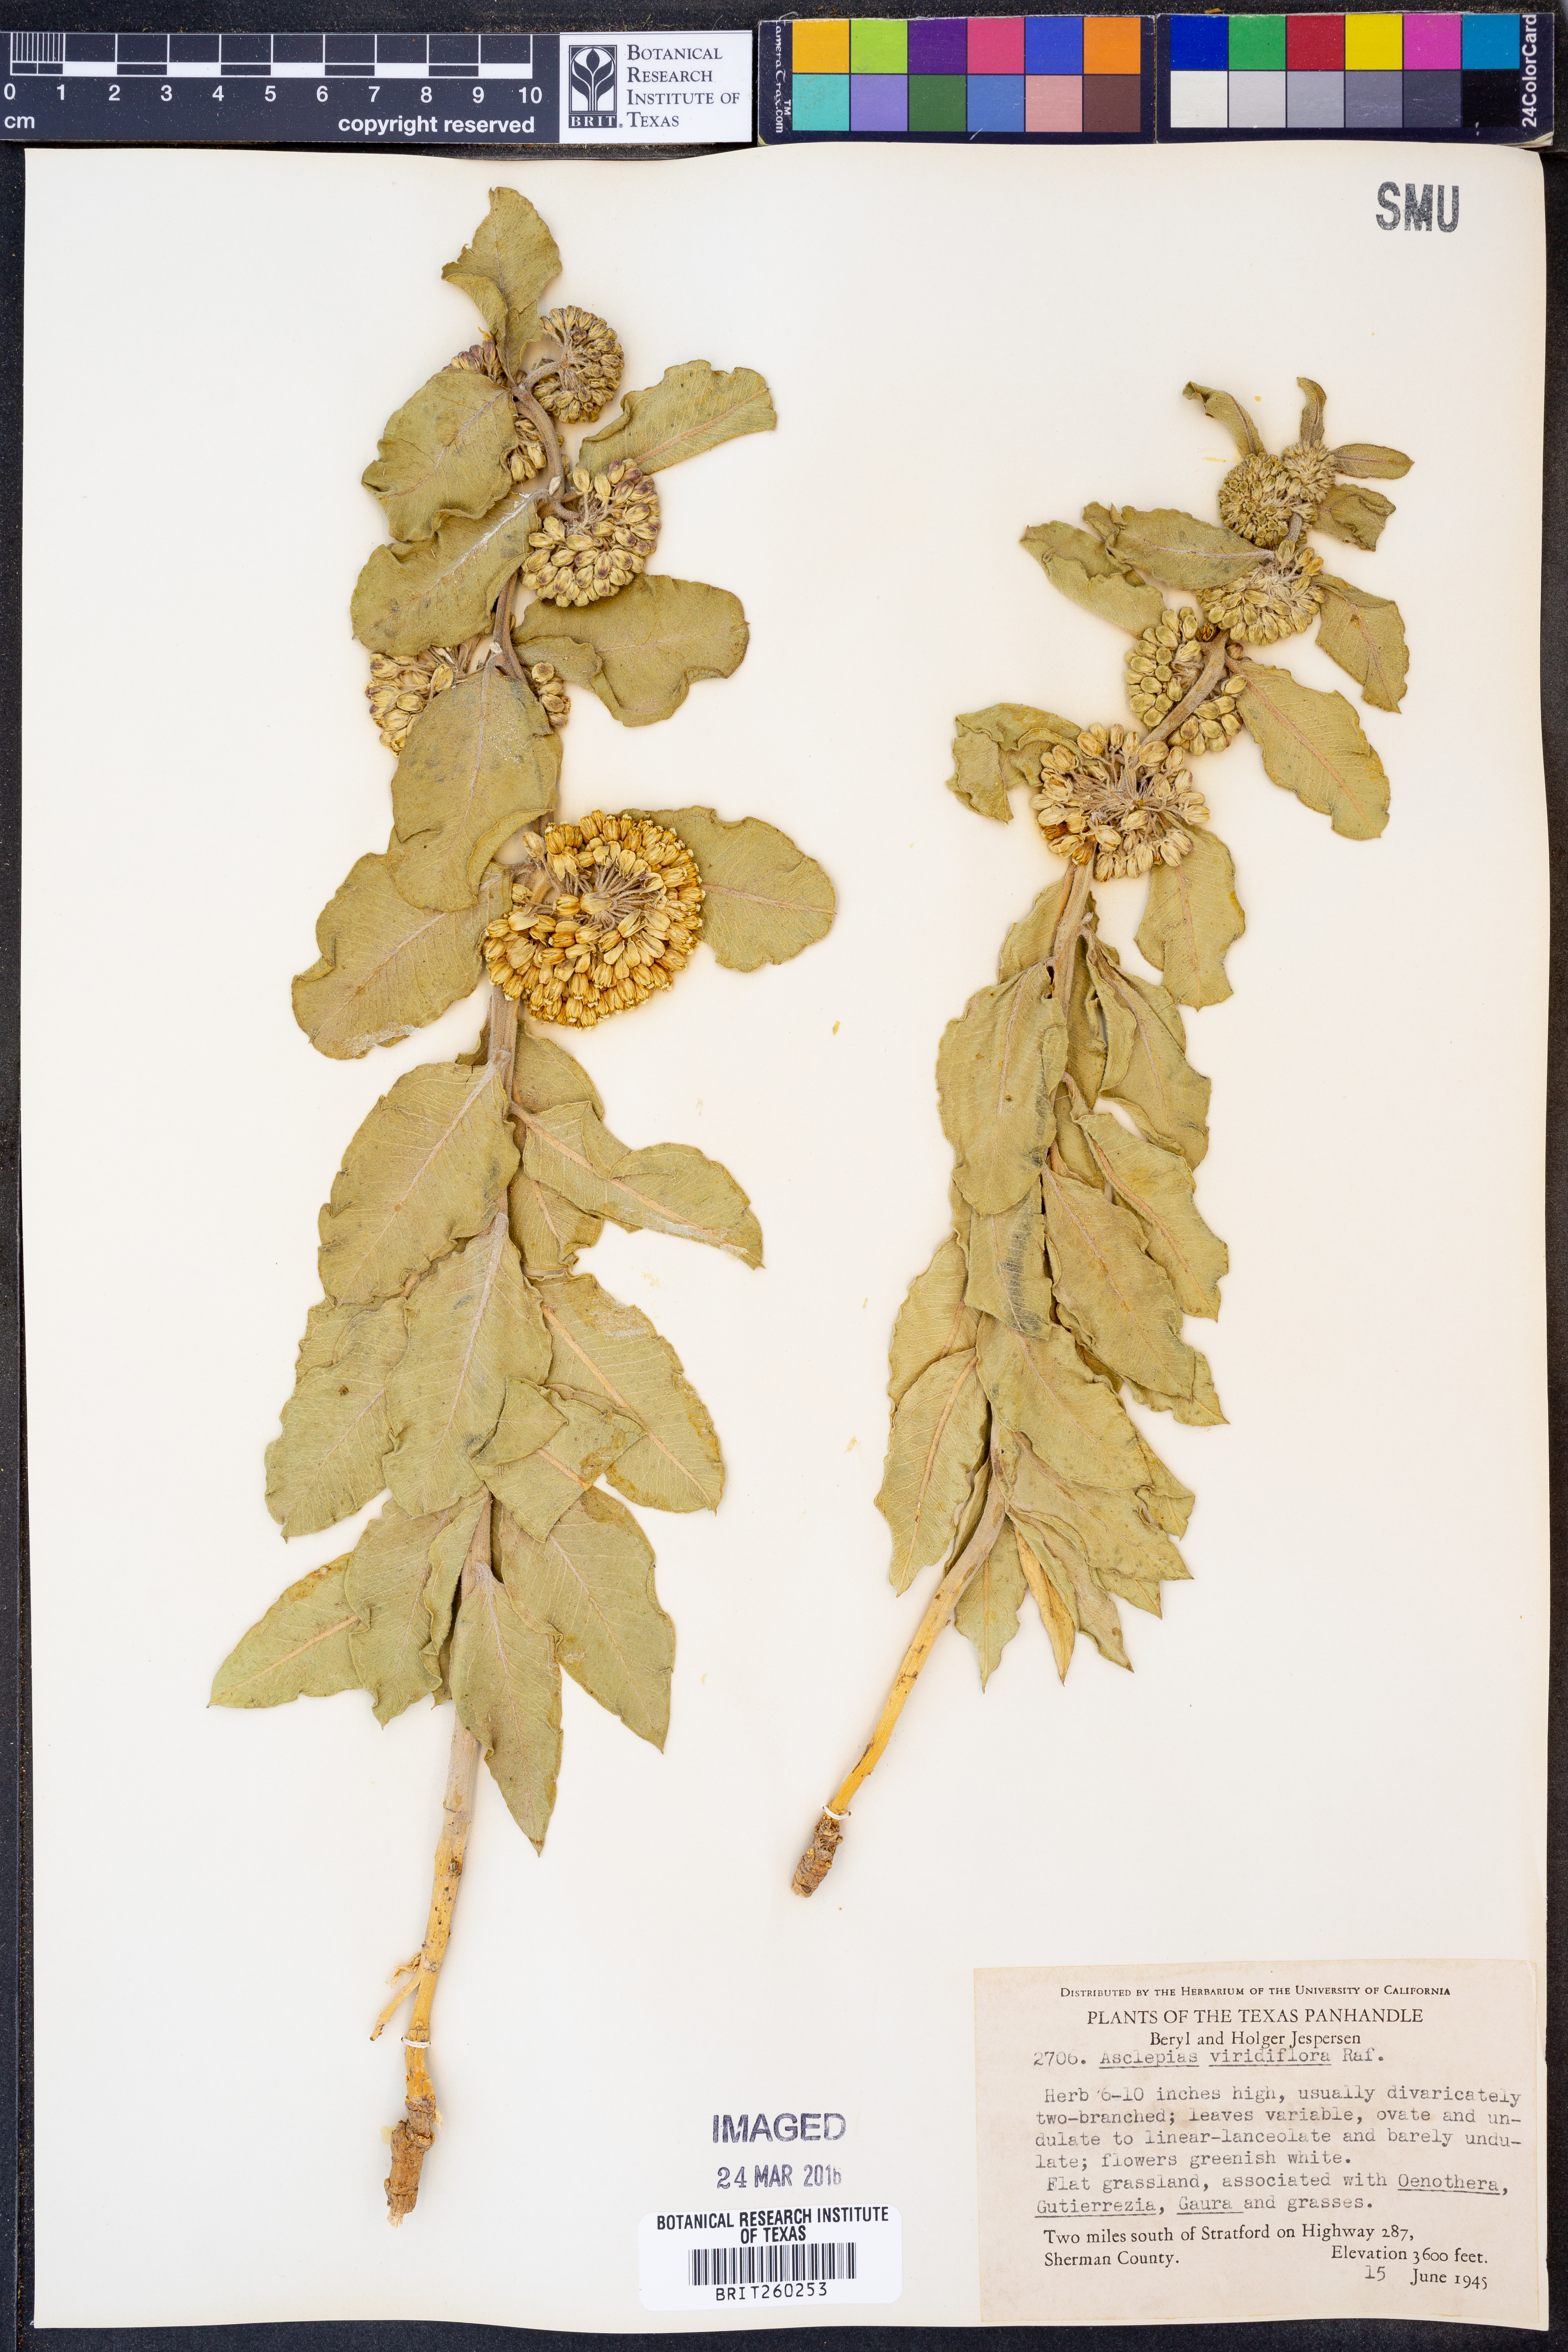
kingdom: Plantae
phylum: Tracheophyta
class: Magnoliopsida
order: Gentianales
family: Apocynaceae
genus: Asclepias
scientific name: Asclepias viridiflora
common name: Green comet milkweed
